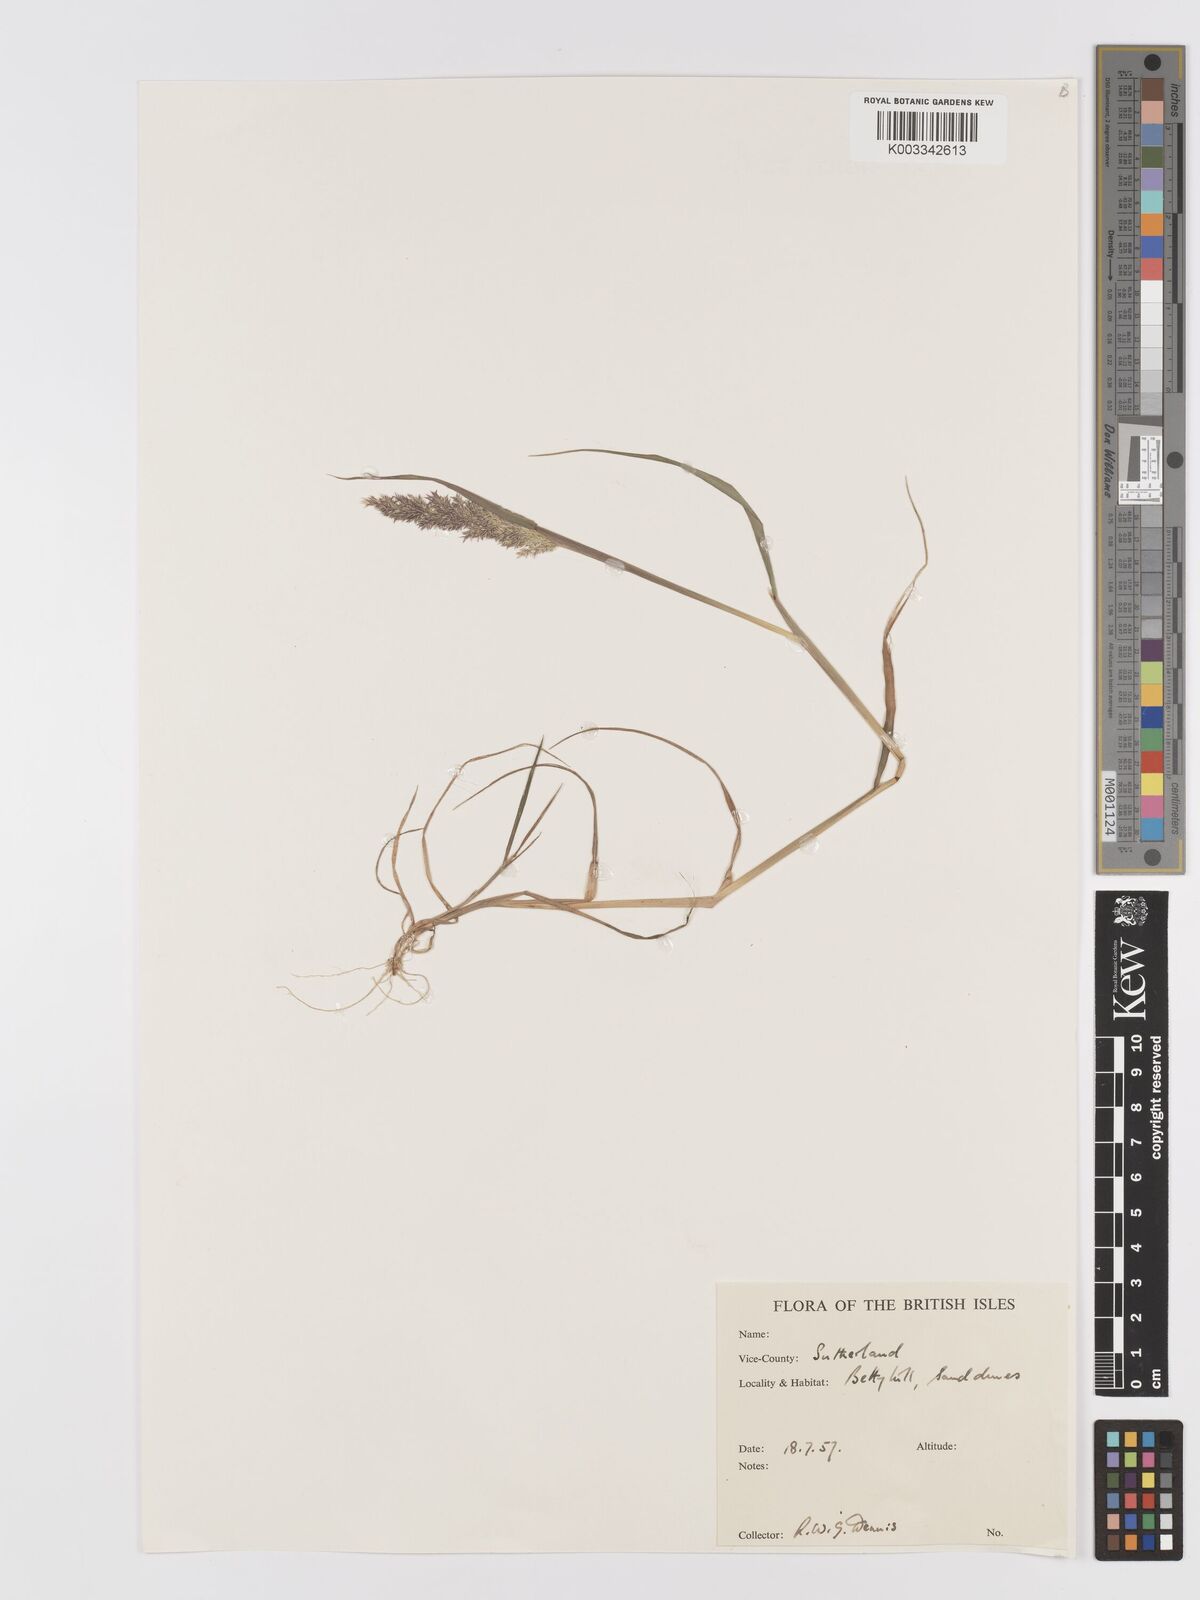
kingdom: Plantae
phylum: Tracheophyta
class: Liliopsida
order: Poales
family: Poaceae
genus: Agrostis
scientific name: Agrostis
